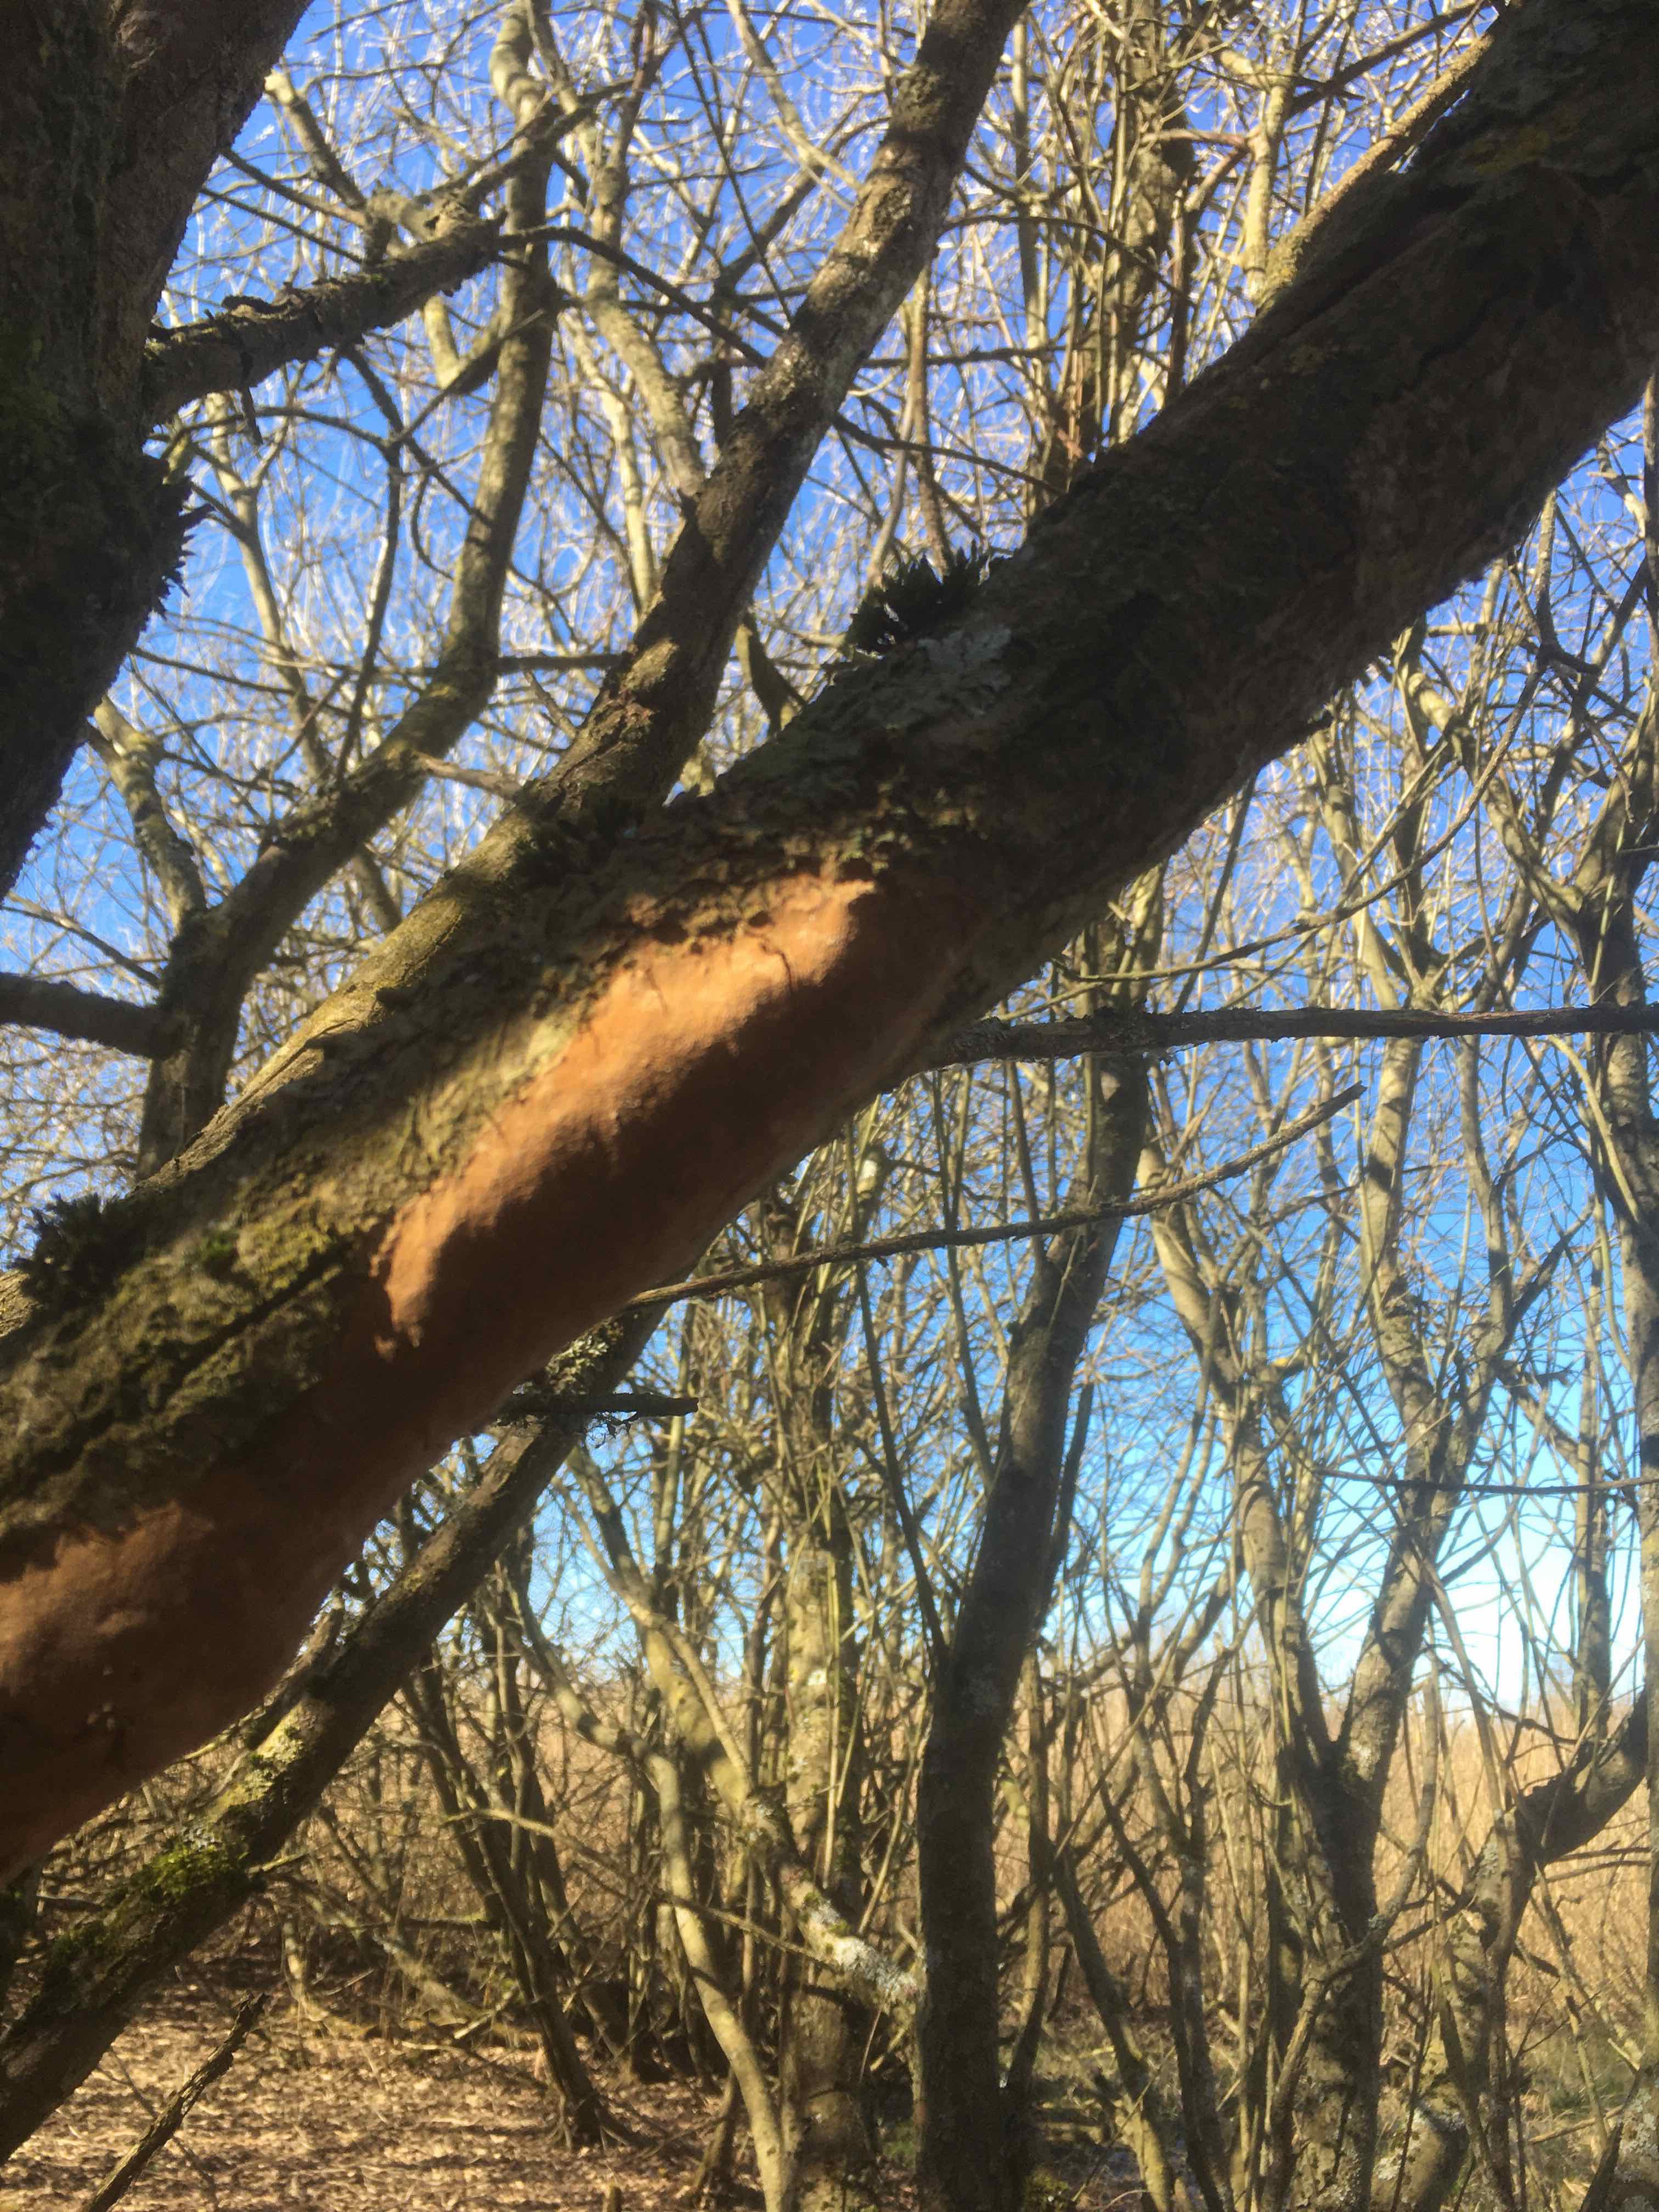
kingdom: Fungi
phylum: Basidiomycota
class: Agaricomycetes
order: Hymenochaetales
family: Hymenochaetaceae
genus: Fomitiporia
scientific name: Fomitiporia punctata
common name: pude-ildporesvamp
